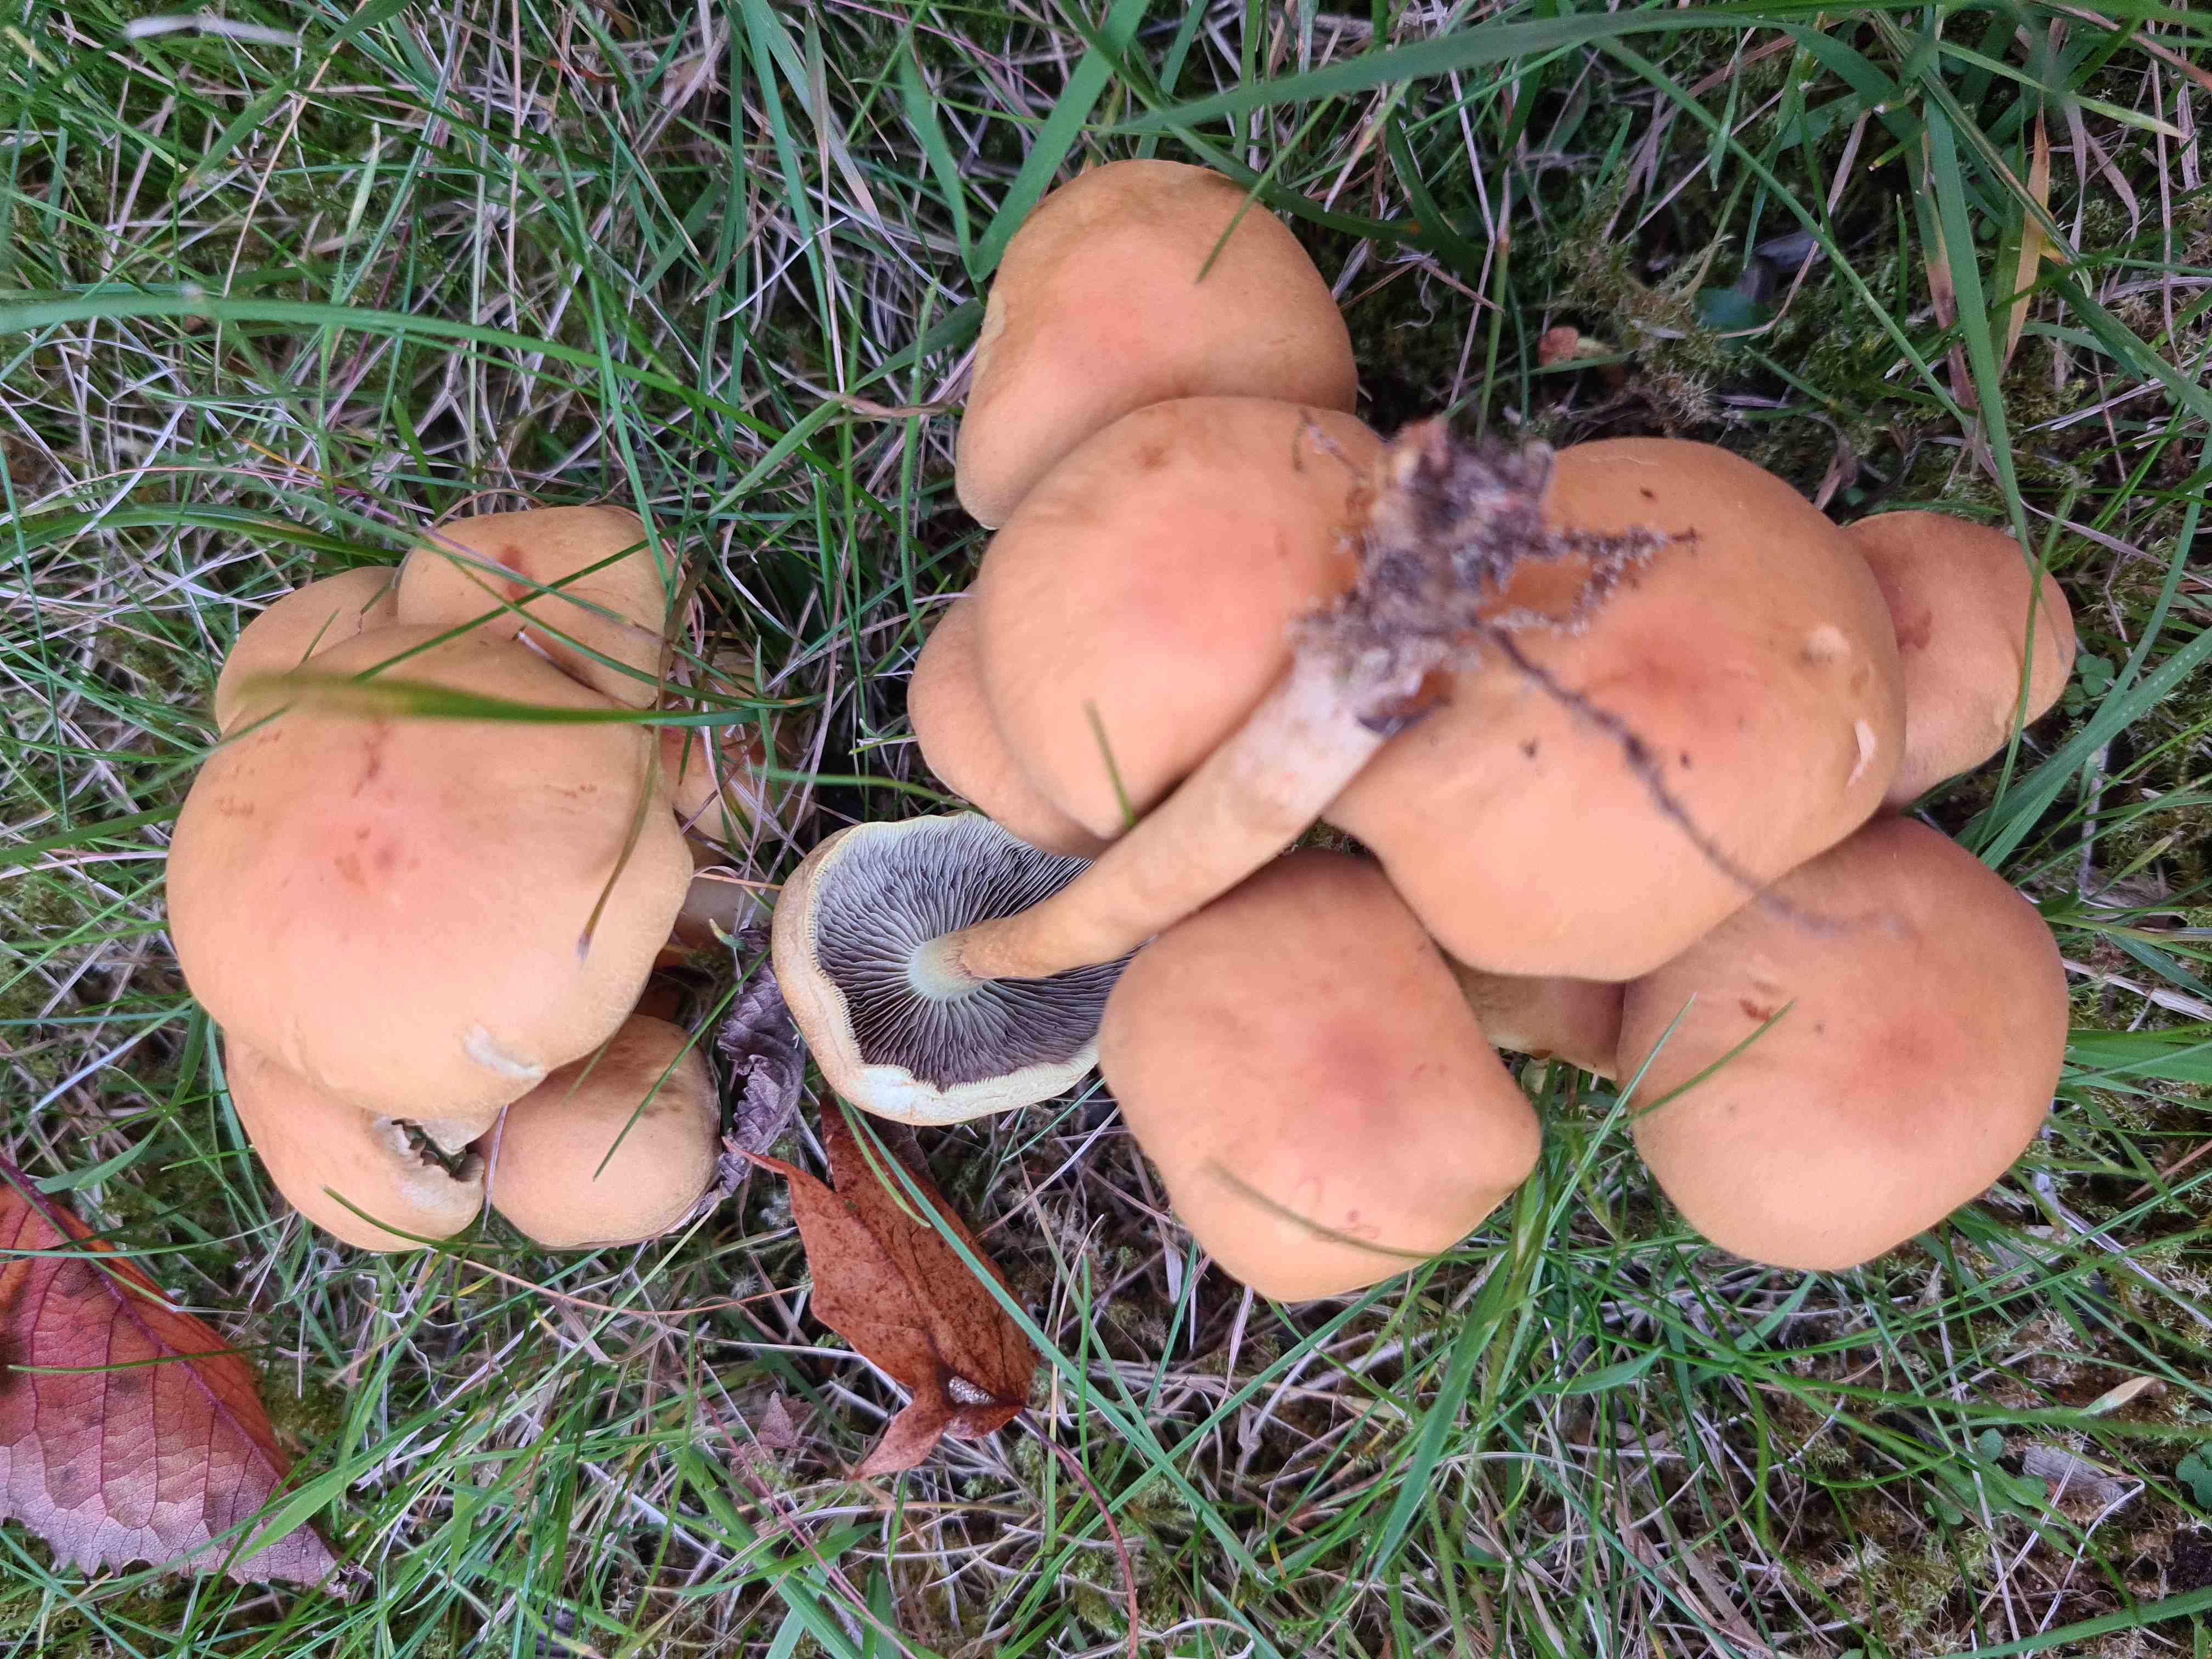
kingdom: Fungi
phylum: Basidiomycota
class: Agaricomycetes
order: Agaricales
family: Strophariaceae
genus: Hypholoma
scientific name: Hypholoma capnoides
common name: gran-svovlhat
